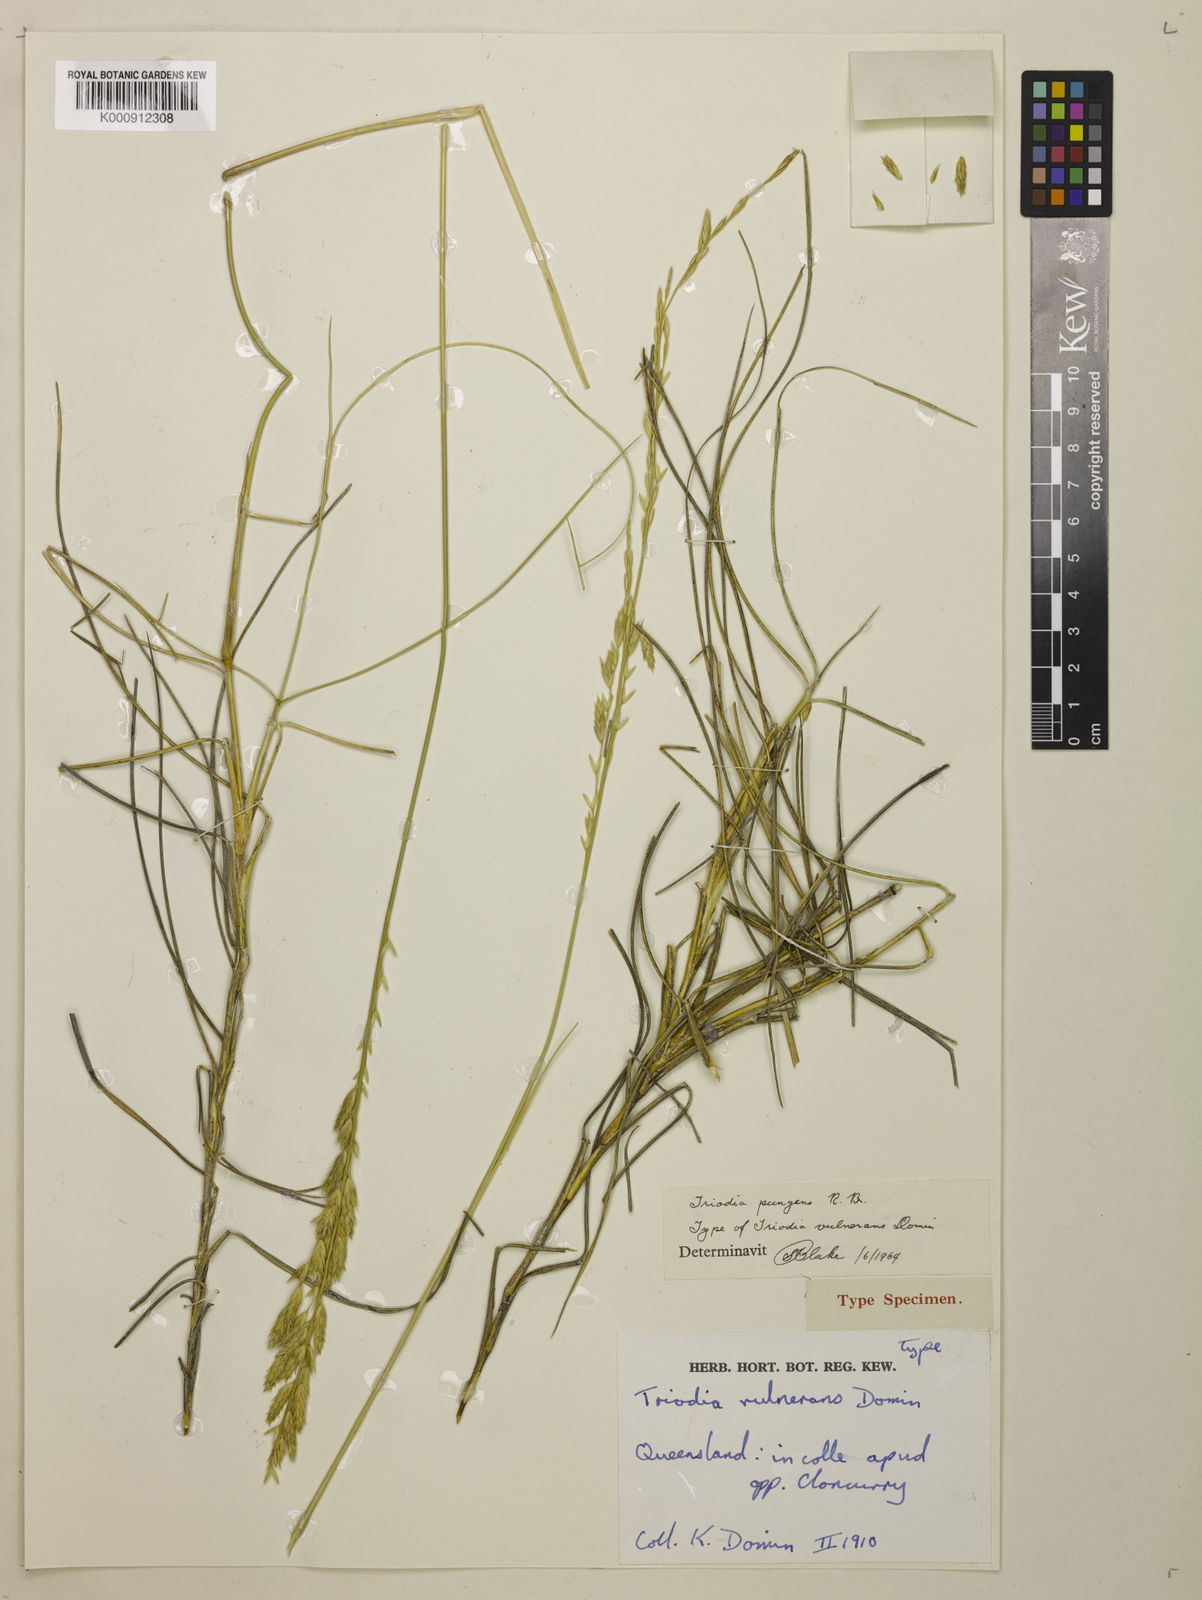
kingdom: Plantae
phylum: Tracheophyta
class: Liliopsida
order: Poales
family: Poaceae
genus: Triodia
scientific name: Triodia pungens
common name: Soft spinifex
